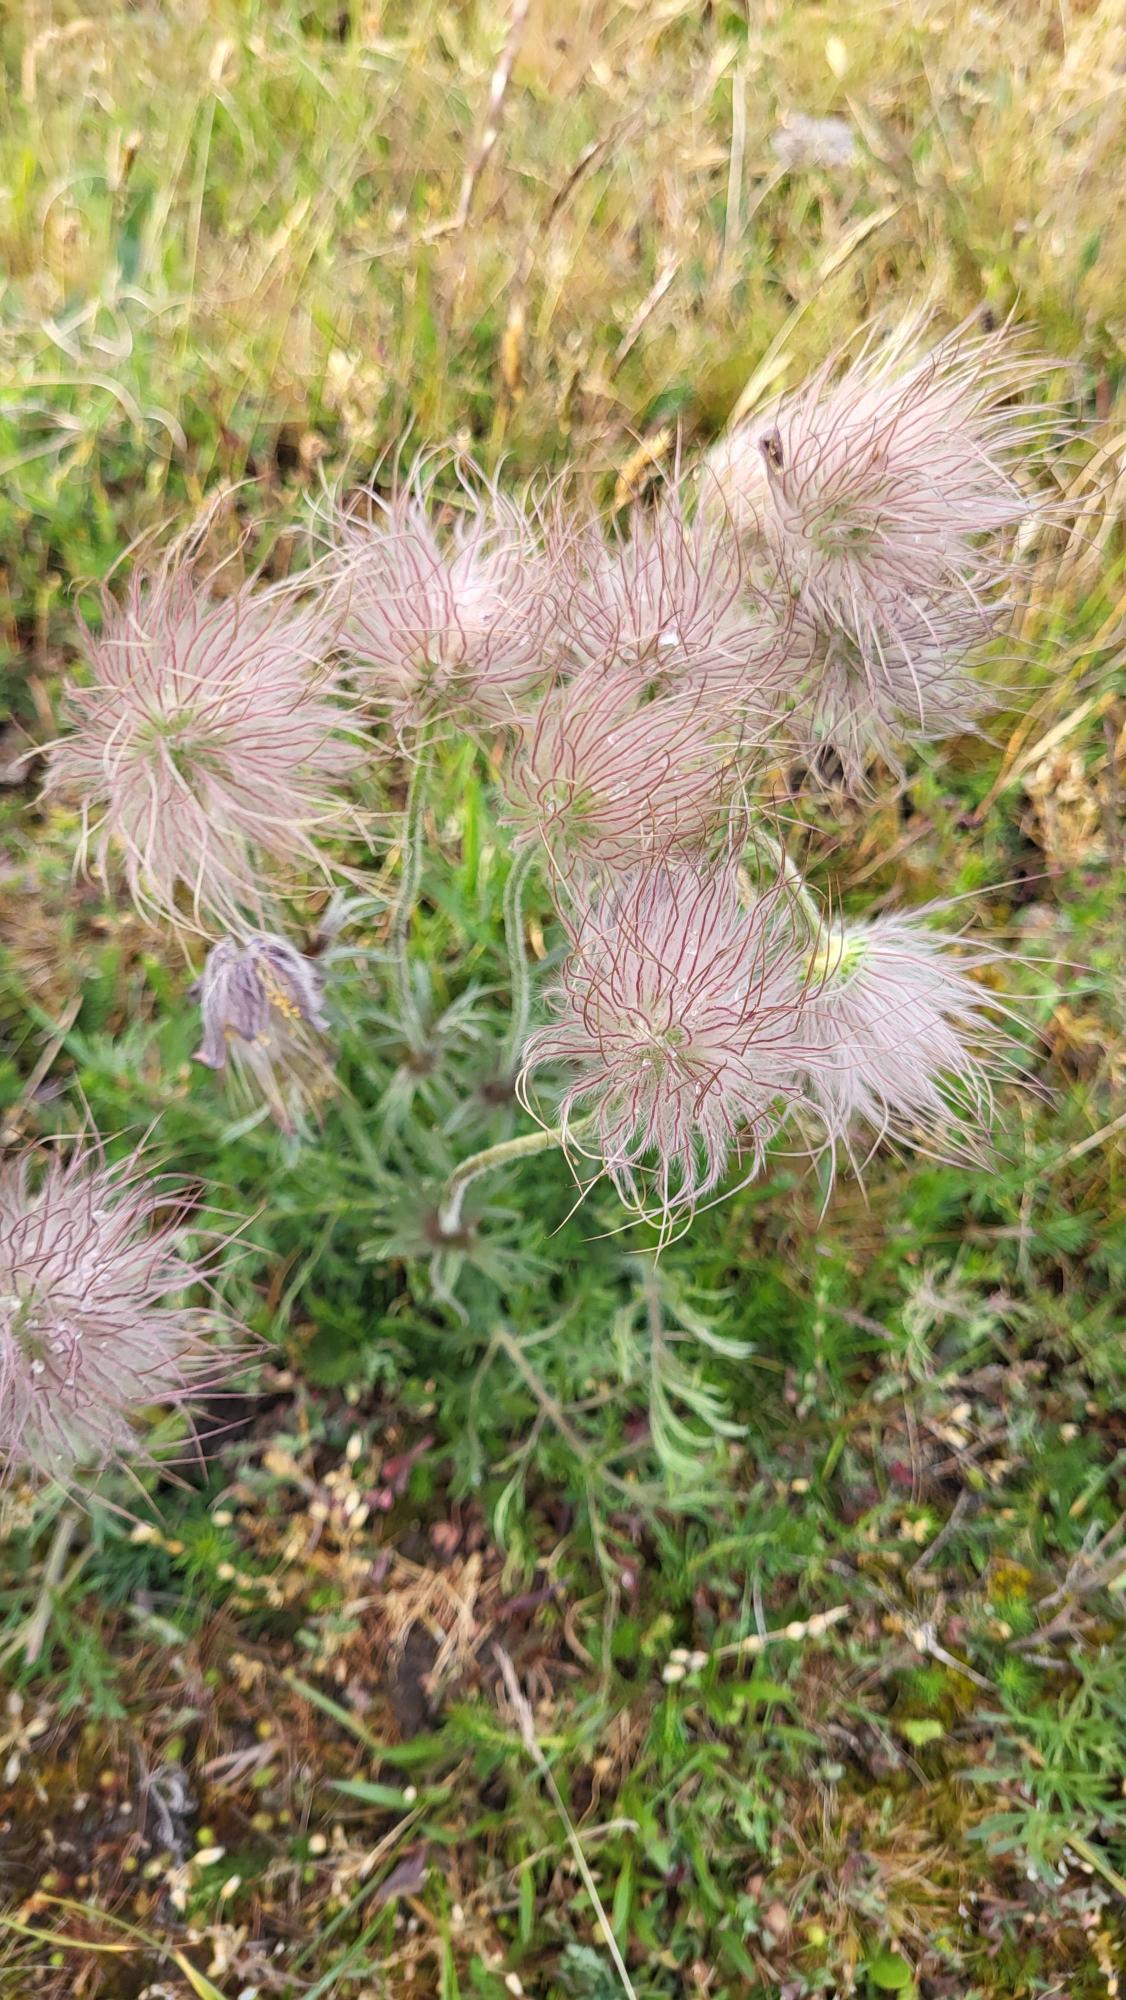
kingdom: Plantae
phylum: Tracheophyta
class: Magnoliopsida
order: Ranunculales
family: Ranunculaceae
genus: Pulsatilla
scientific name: Pulsatilla pratensis
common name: Nikkende kobjælde
